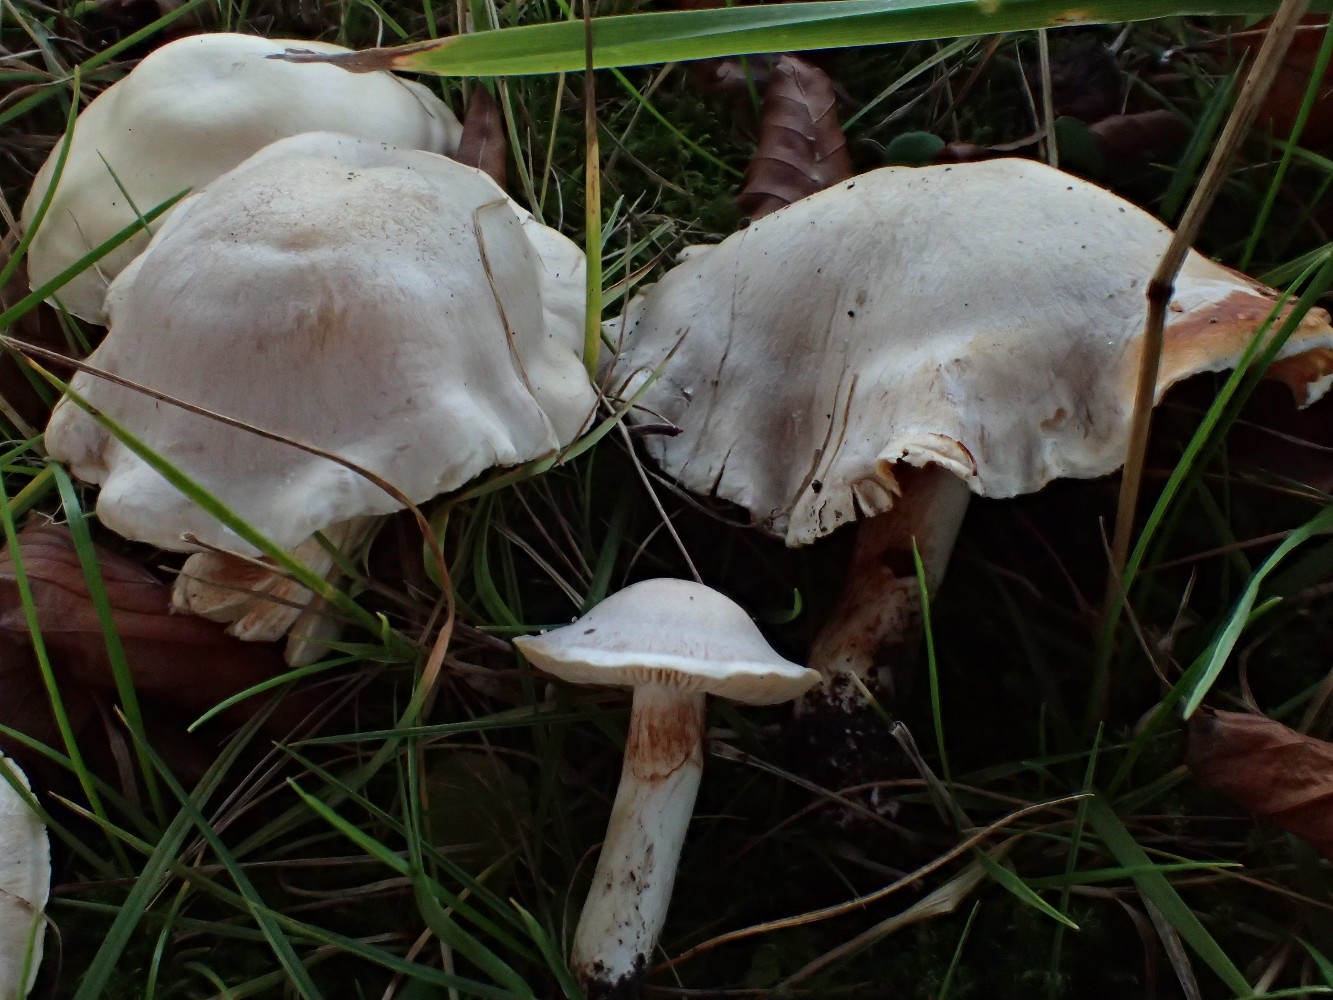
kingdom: Fungi
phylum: Basidiomycota
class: Agaricomycetes
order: Agaricales
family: Cortinariaceae
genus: Thaxterogaster
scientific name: Thaxterogaster leucoluteolus
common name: isabella slørhat
